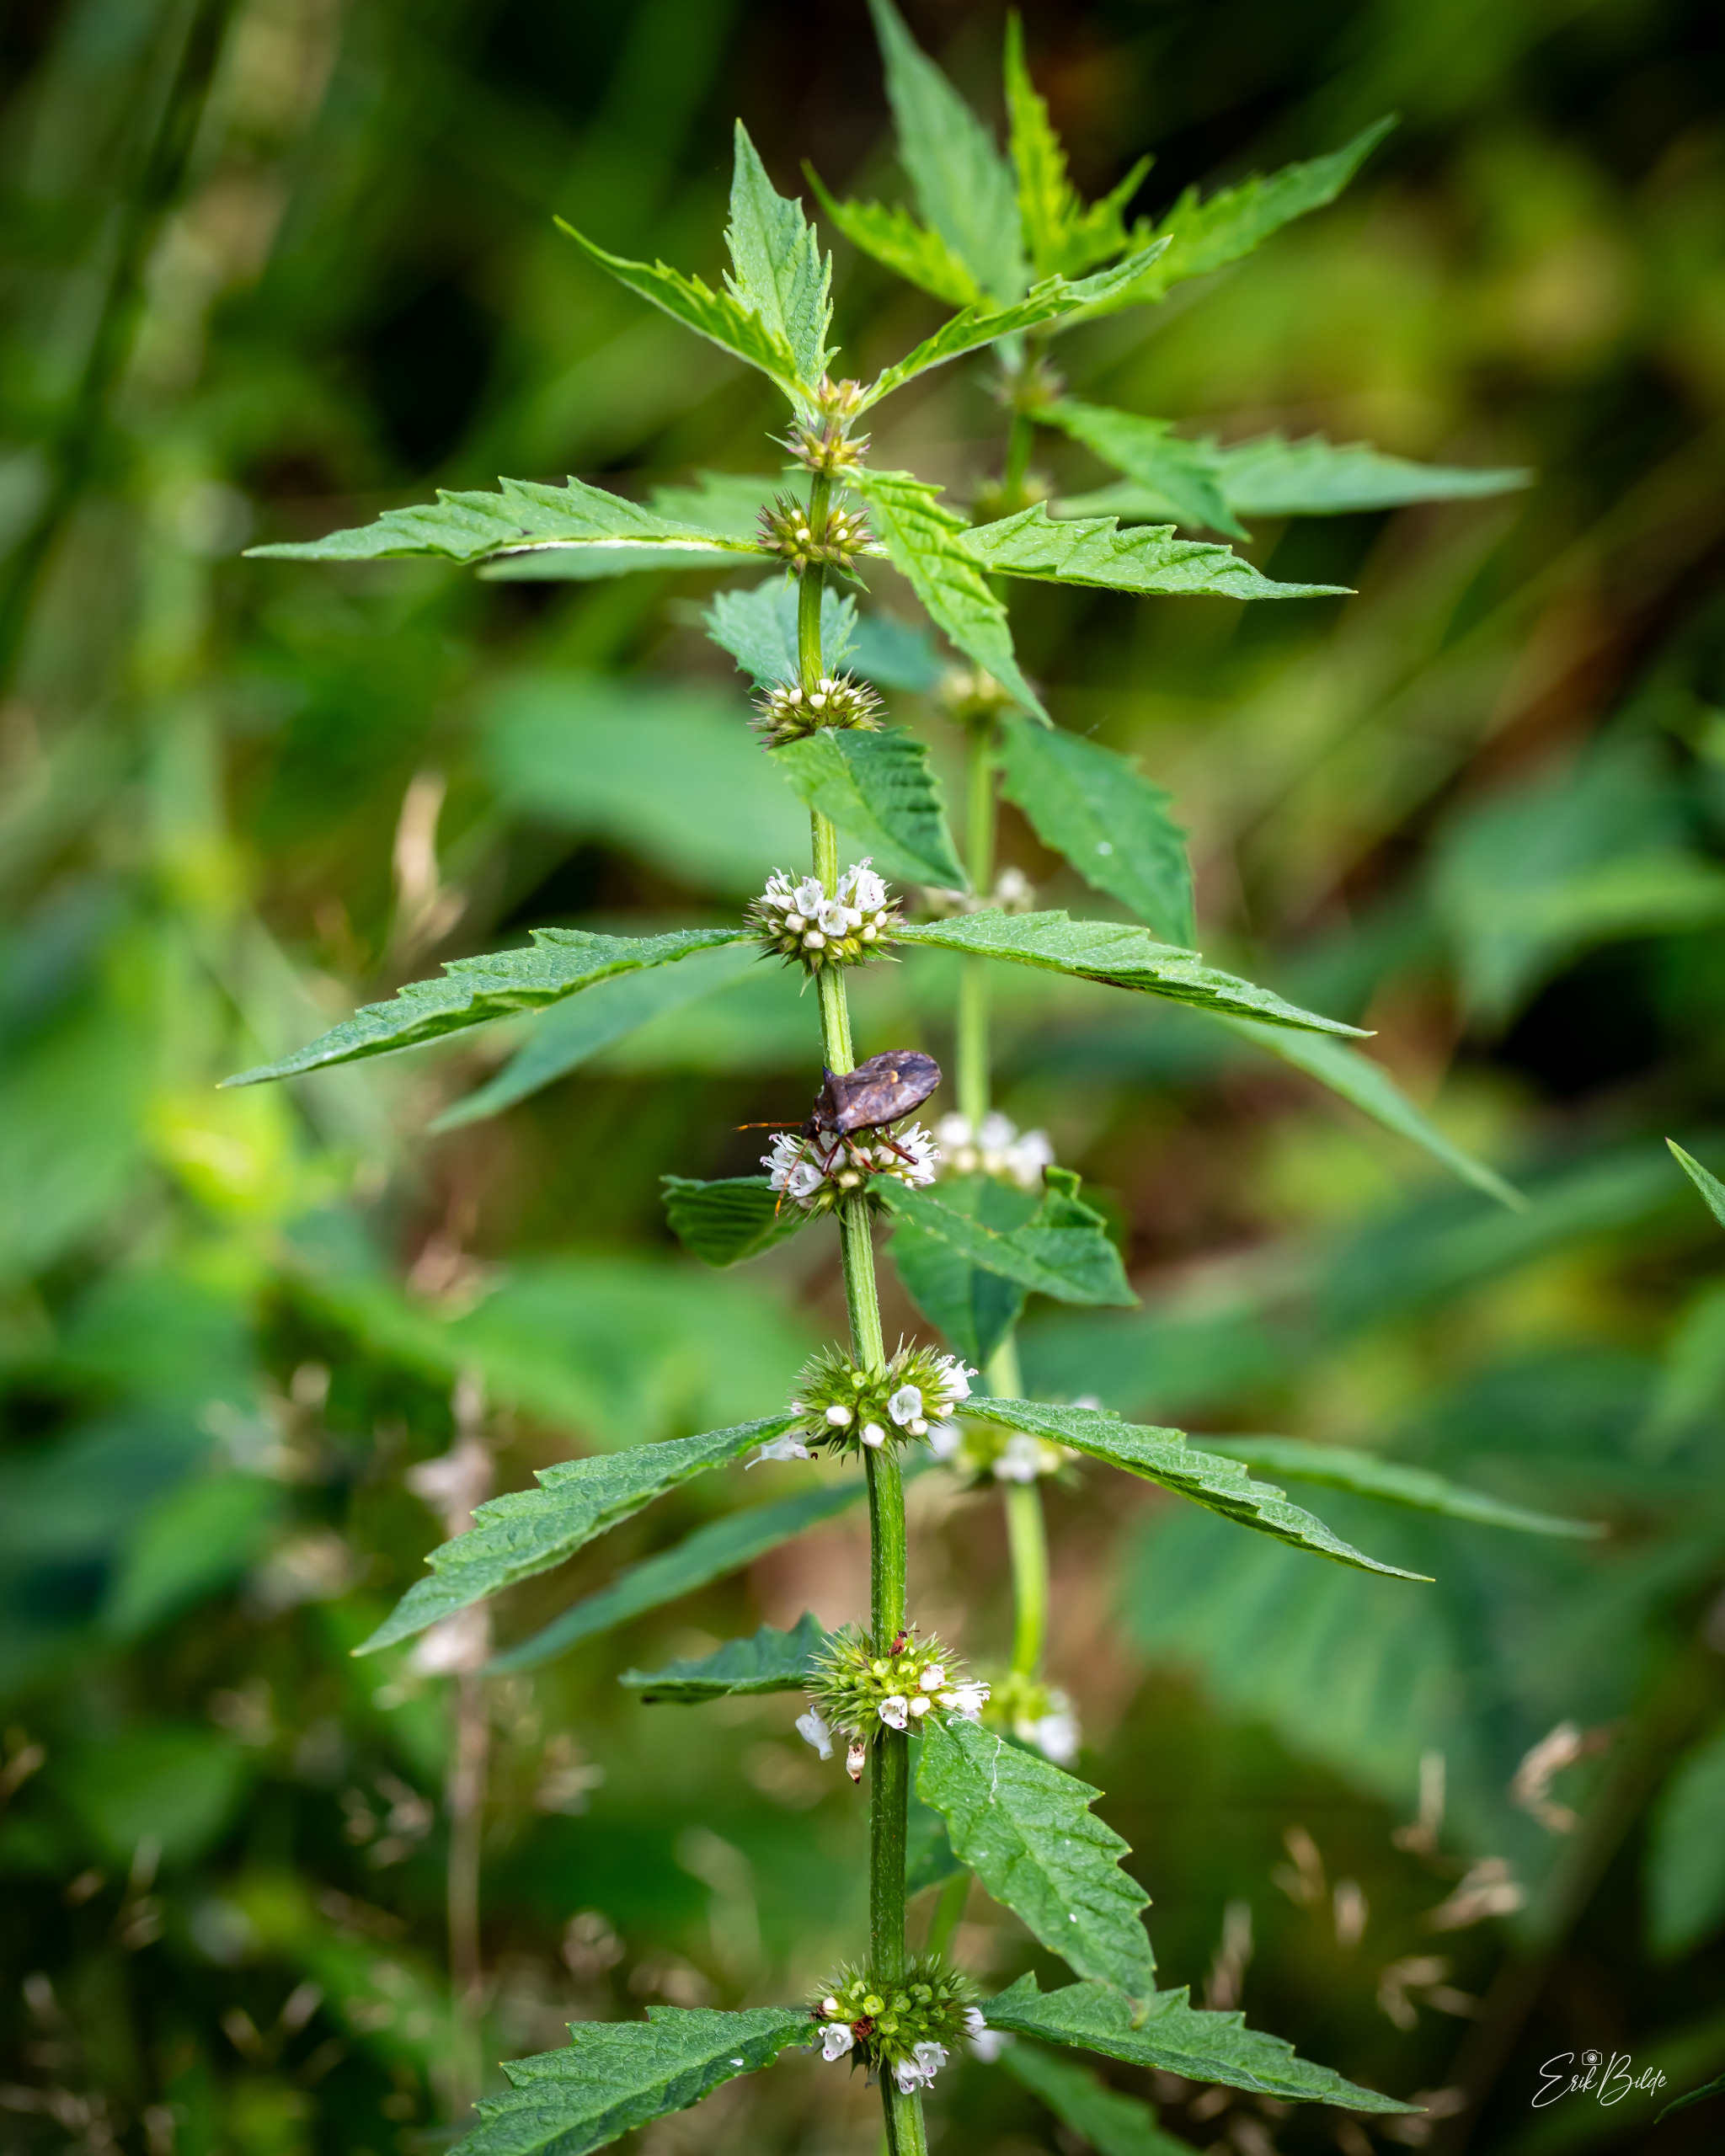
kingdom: Plantae
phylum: Tracheophyta
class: Magnoliopsida
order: Lamiales
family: Lamiaceae
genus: Lycopus
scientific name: Lycopus europaeus
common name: Sværtevæld
